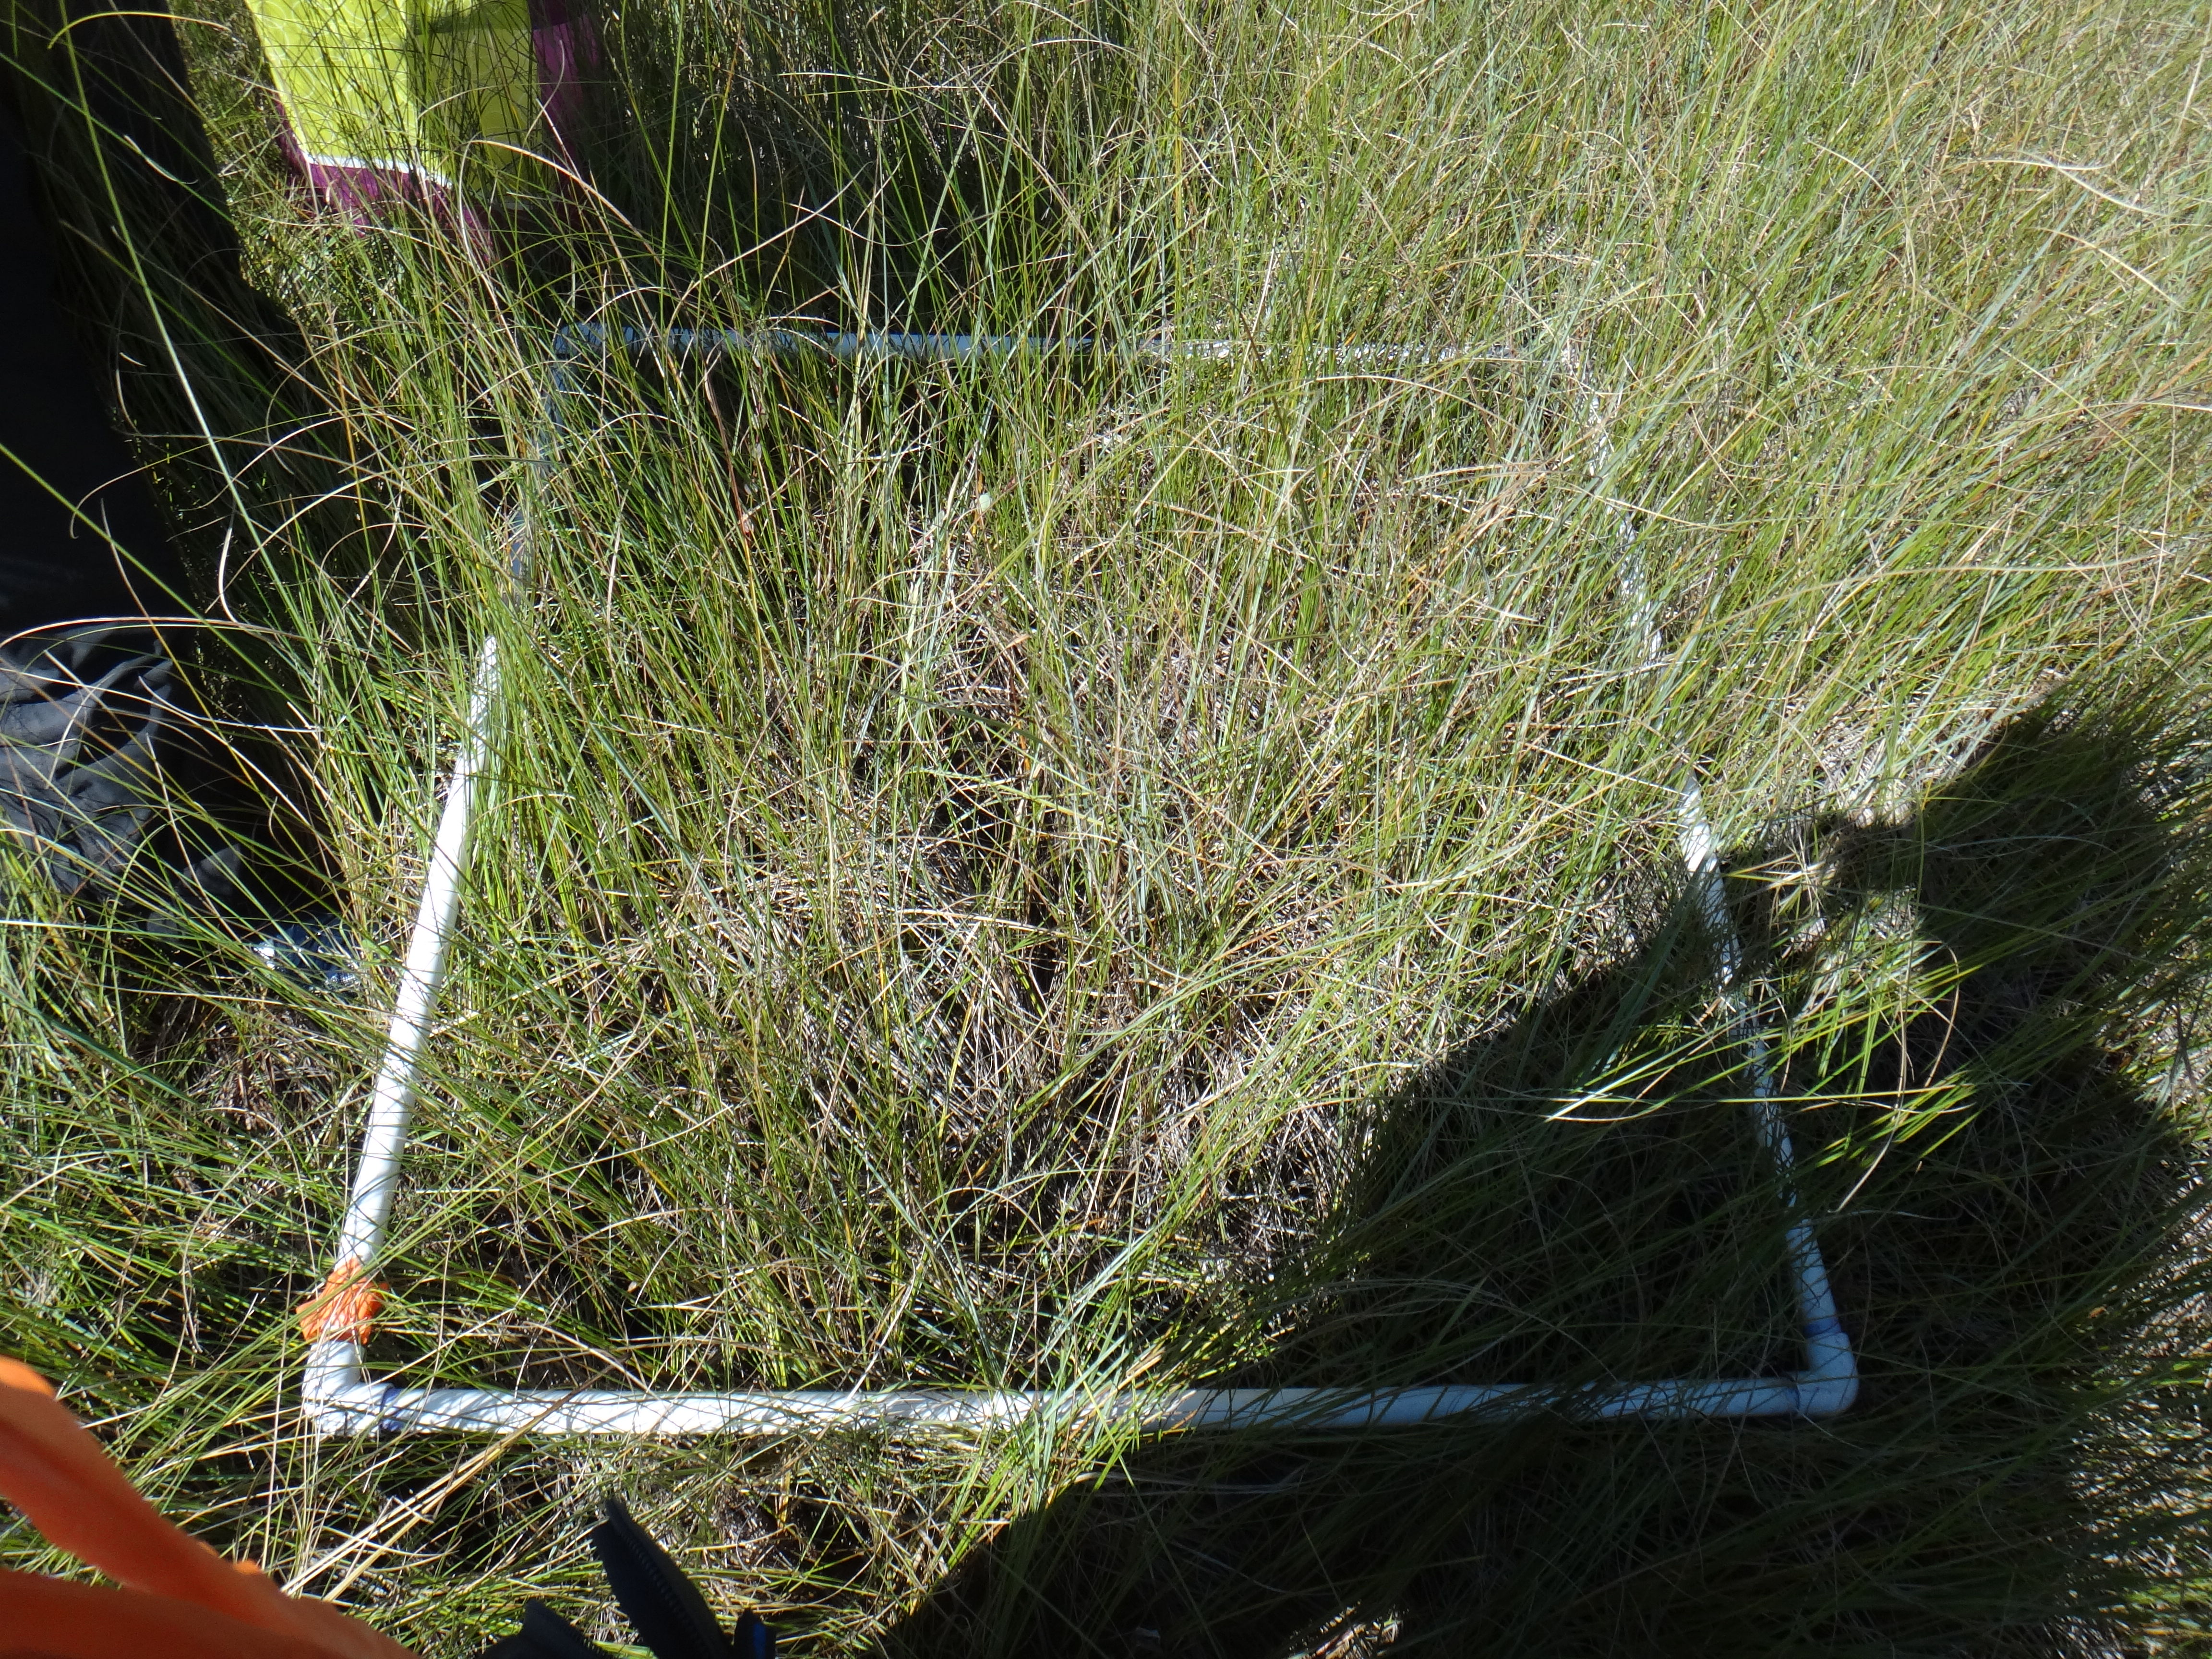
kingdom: Plantae
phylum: Tracheophyta
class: Liliopsida
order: Poales
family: Cyperaceae
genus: Carex
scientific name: Carex lasiocarpa
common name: Slender sedge
